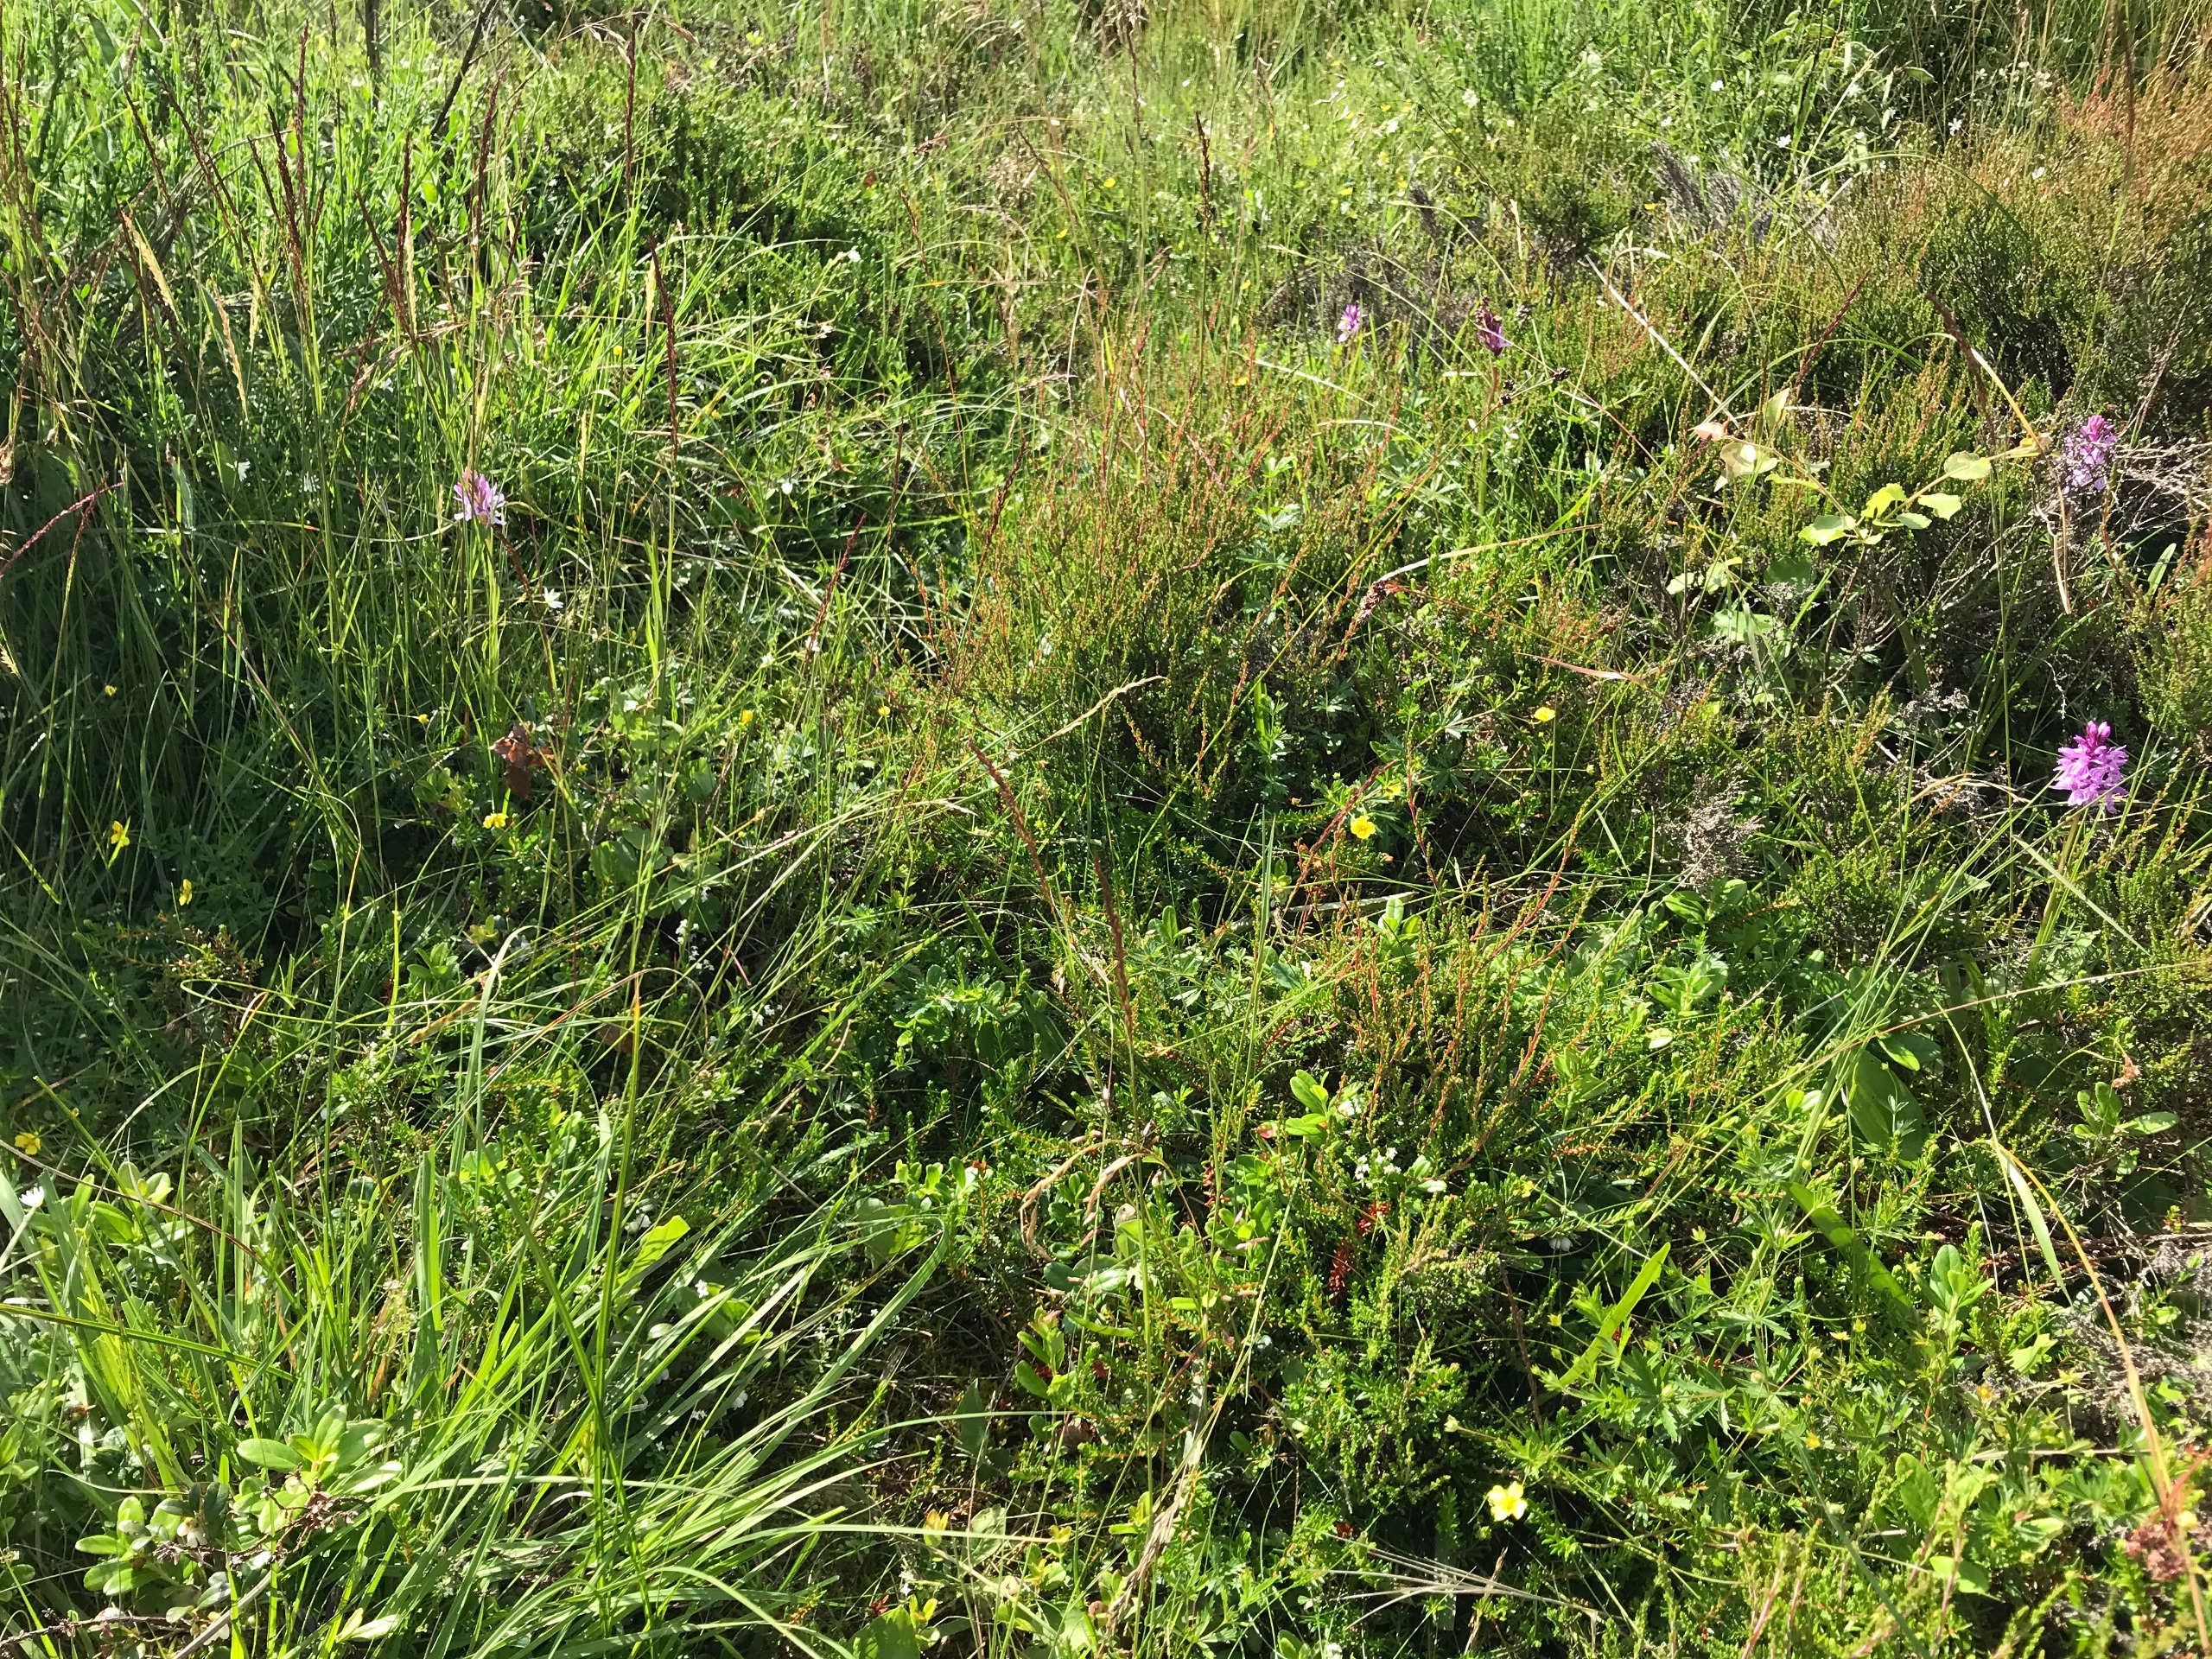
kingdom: Plantae
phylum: Tracheophyta
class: Magnoliopsida
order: Rosales
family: Rosaceae
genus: Potentilla
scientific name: Potentilla erecta
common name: Tormentil
